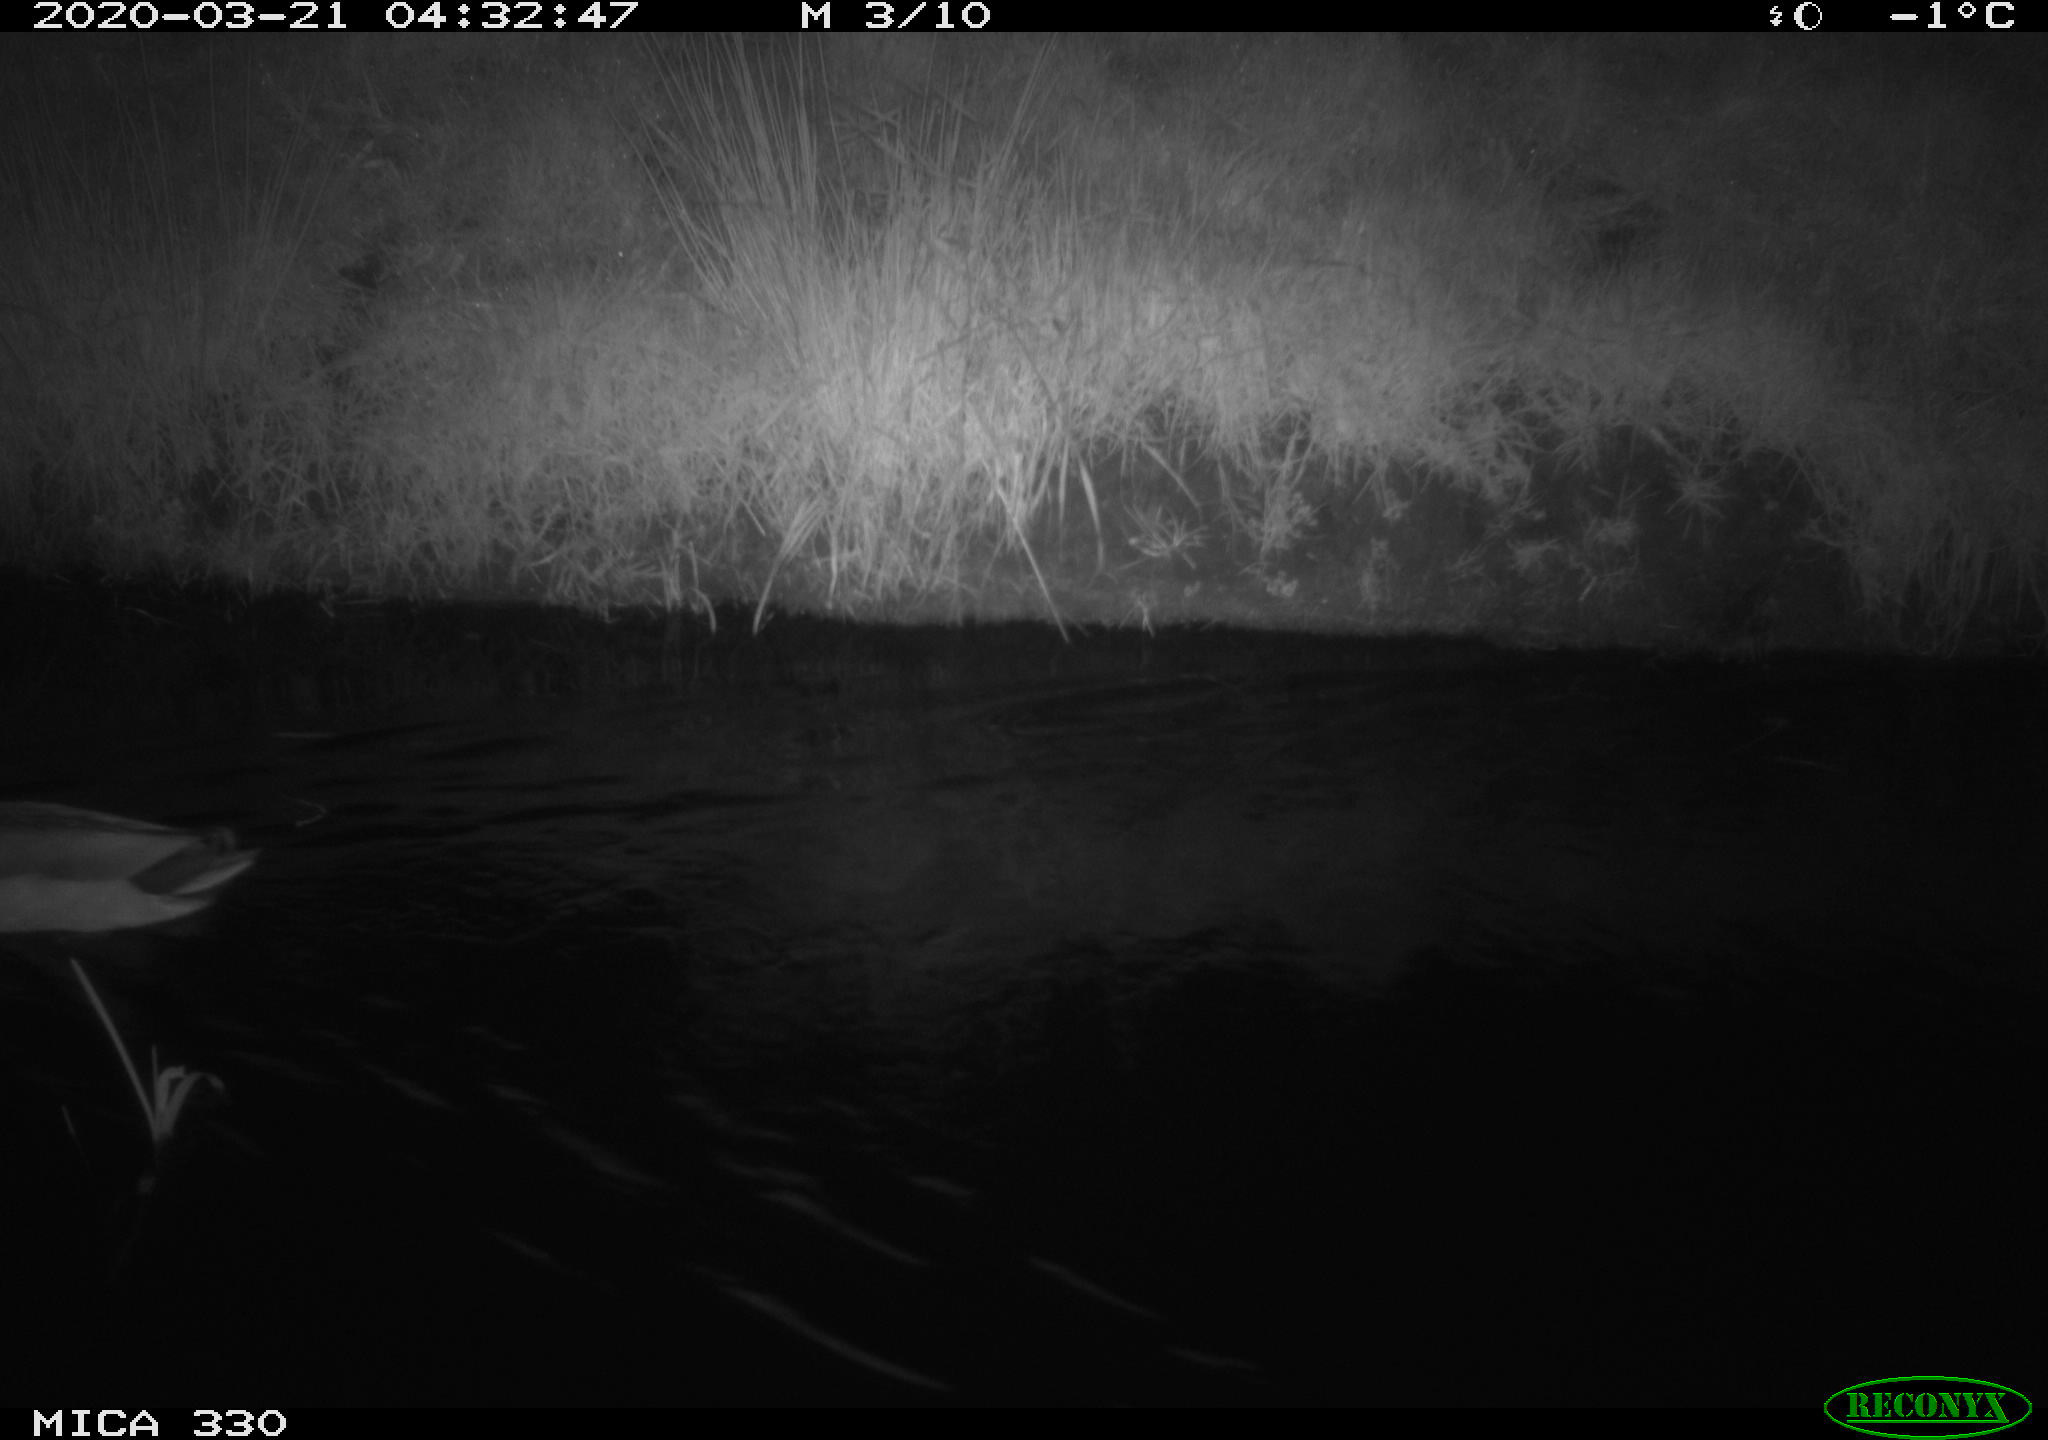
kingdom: Animalia
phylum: Chordata
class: Aves
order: Anseriformes
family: Anatidae
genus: Anas
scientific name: Anas platyrhynchos
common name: Mallard
